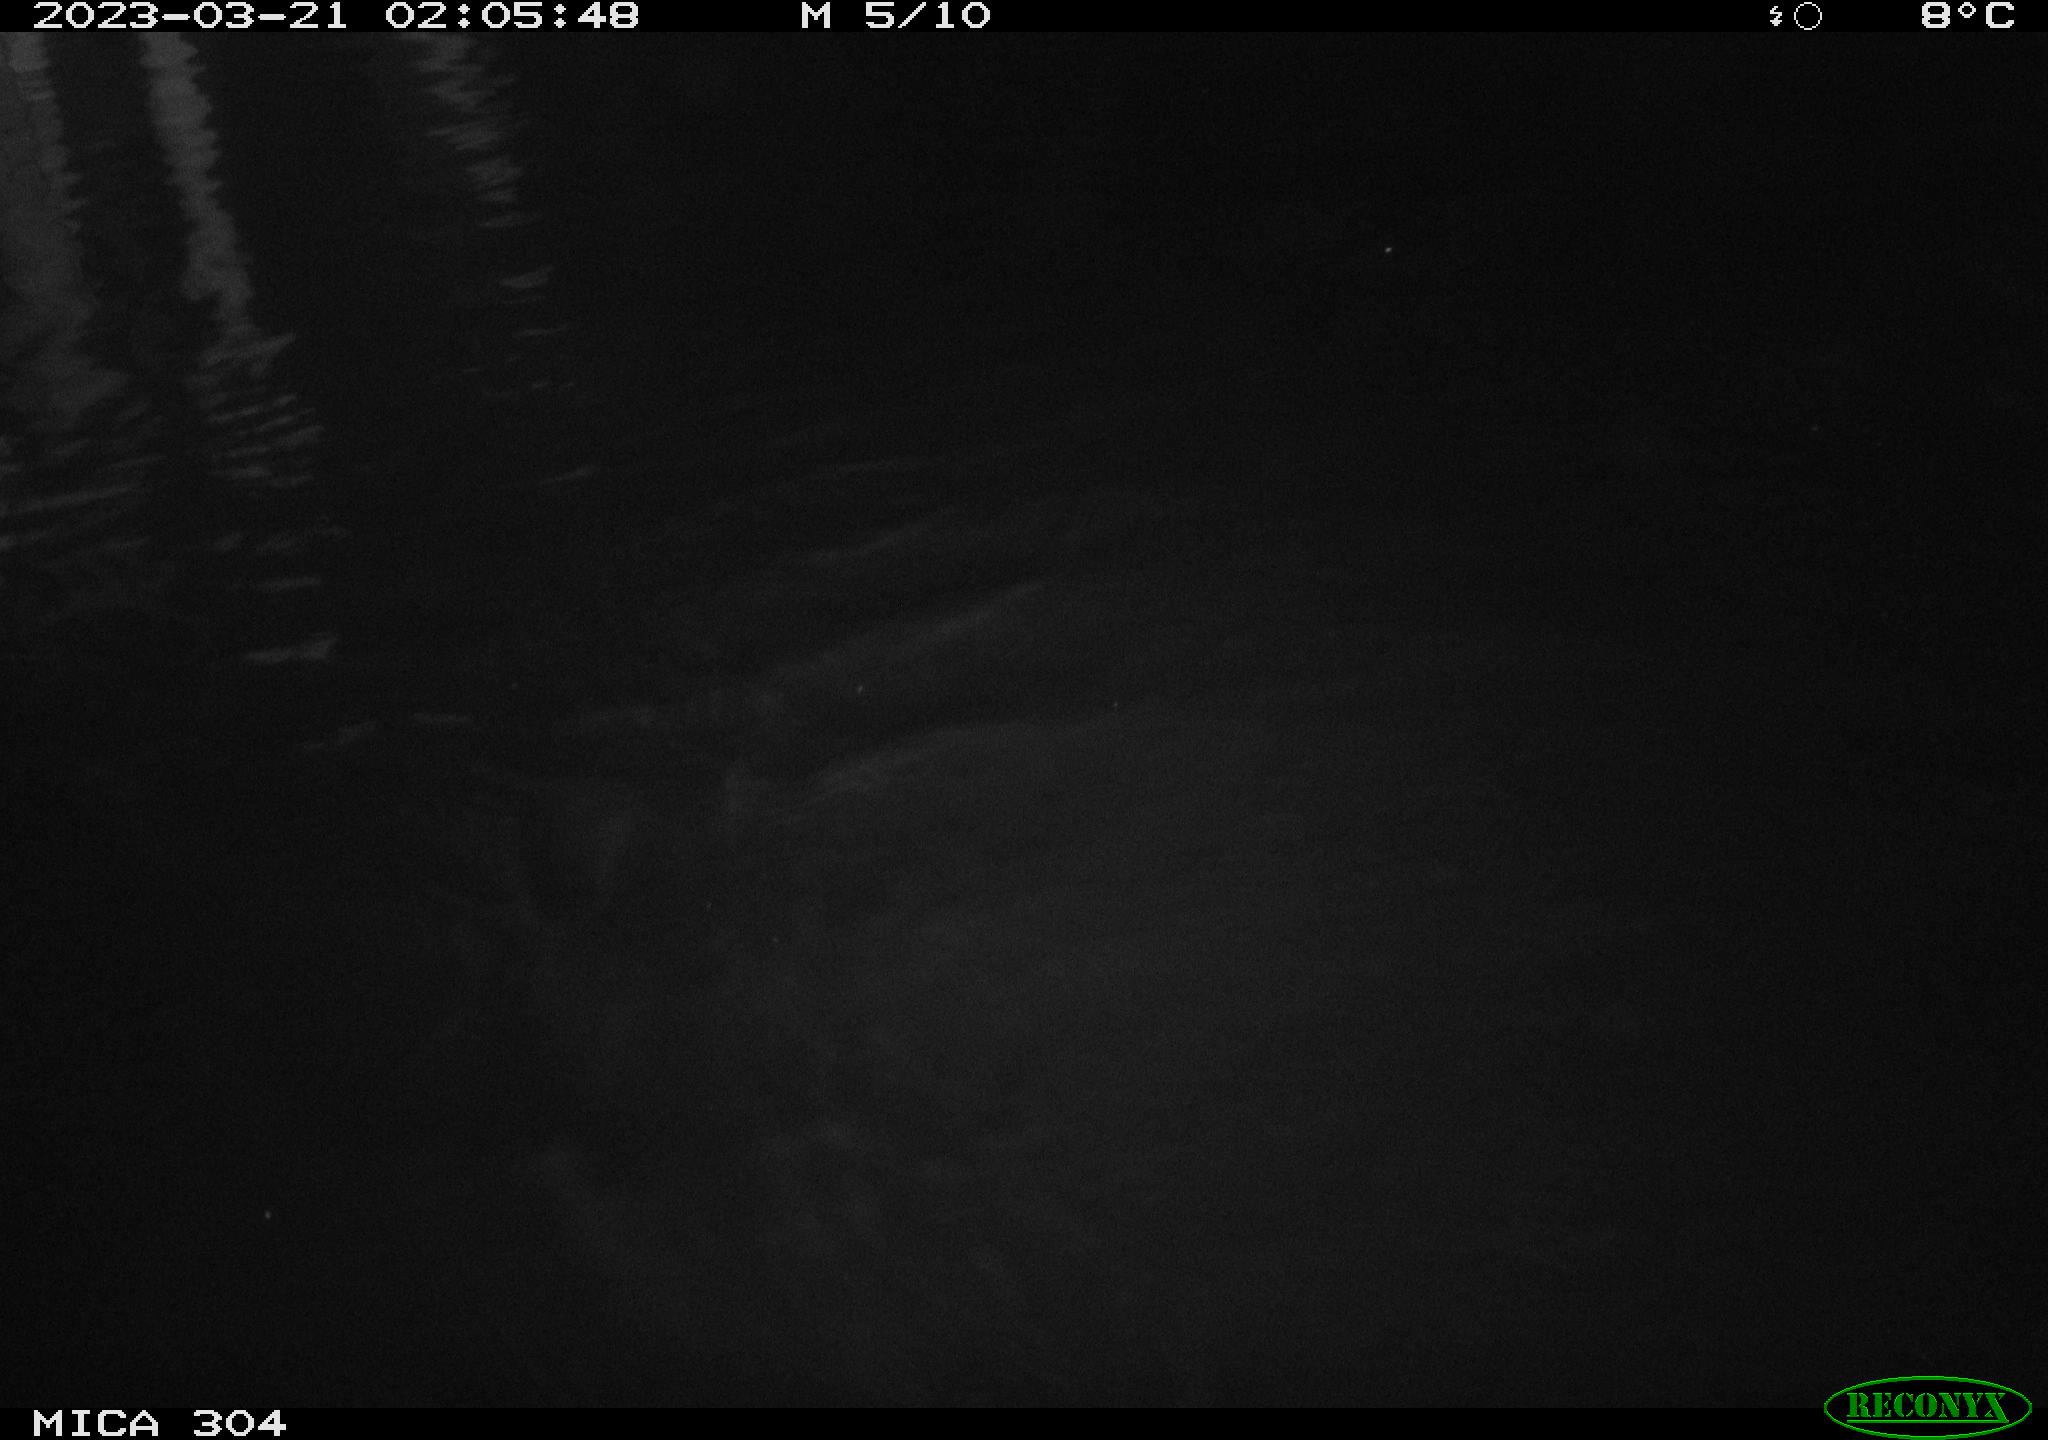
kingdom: Animalia
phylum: Chordata
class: Mammalia
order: Rodentia
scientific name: Rodentia
